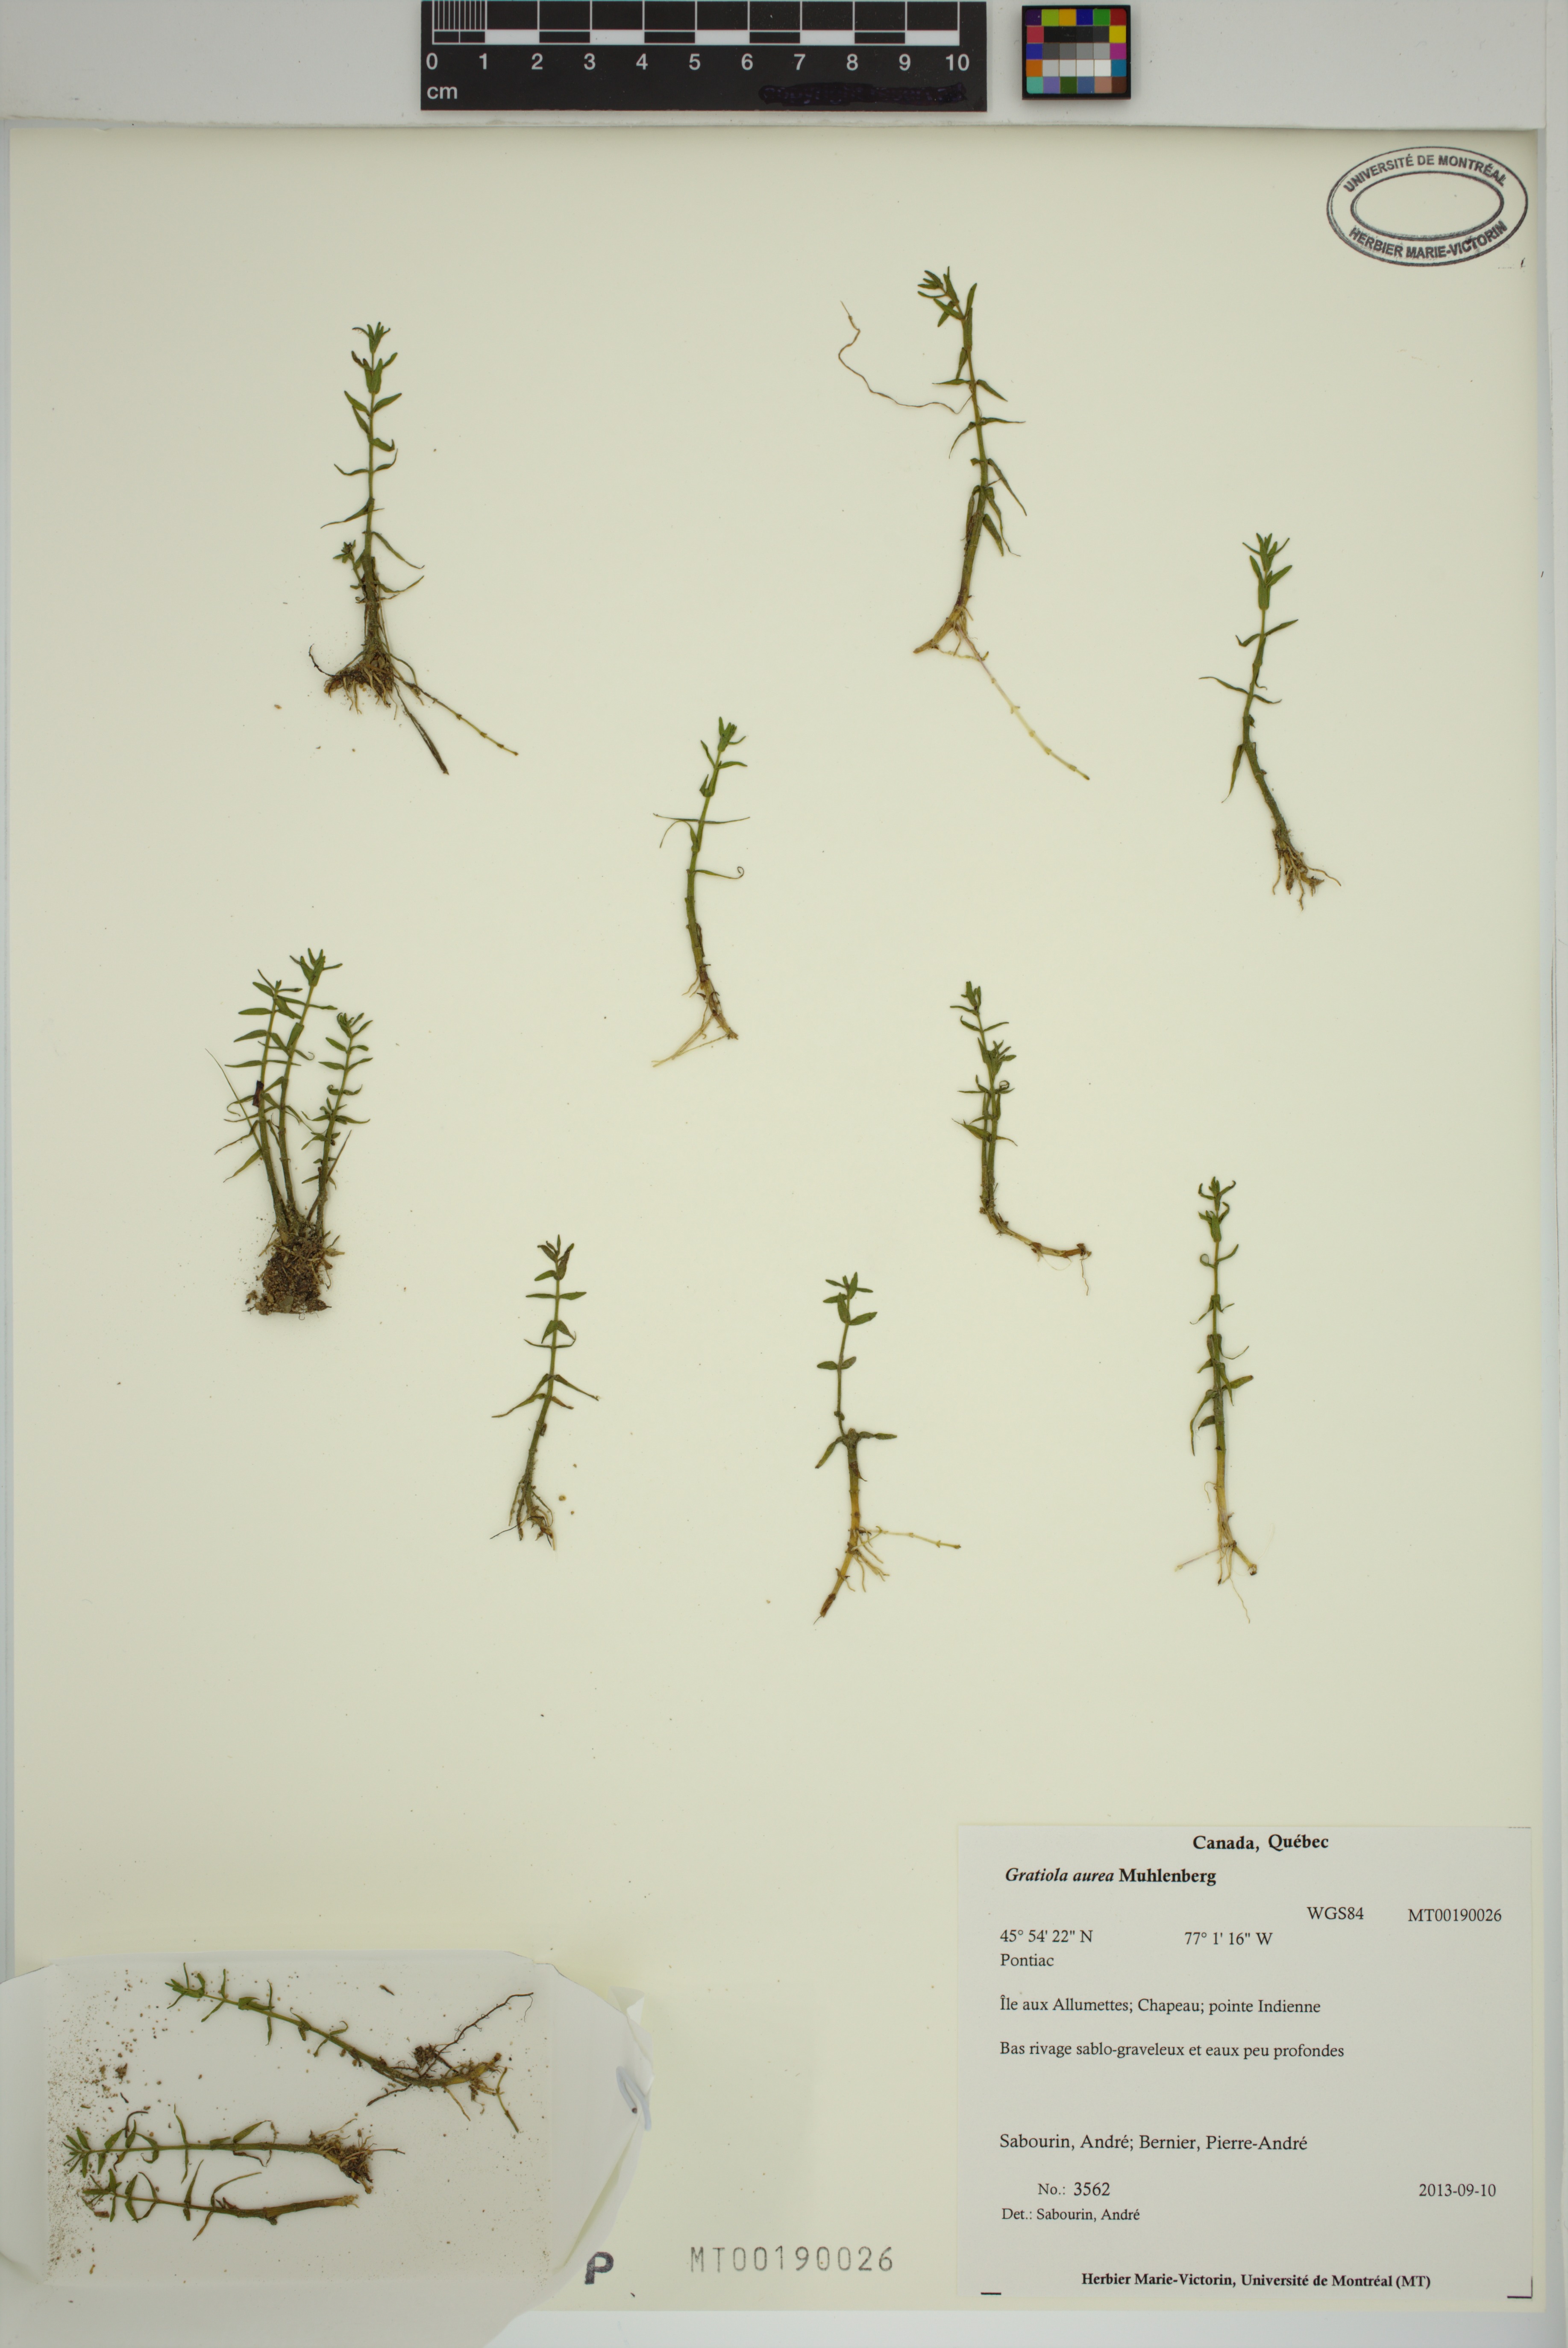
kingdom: Plantae
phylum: Tracheophyta
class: Magnoliopsida
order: Lamiales
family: Plantaginaceae
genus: Gratiola
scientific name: Gratiola lutea
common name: Golden hedge-hyssop
